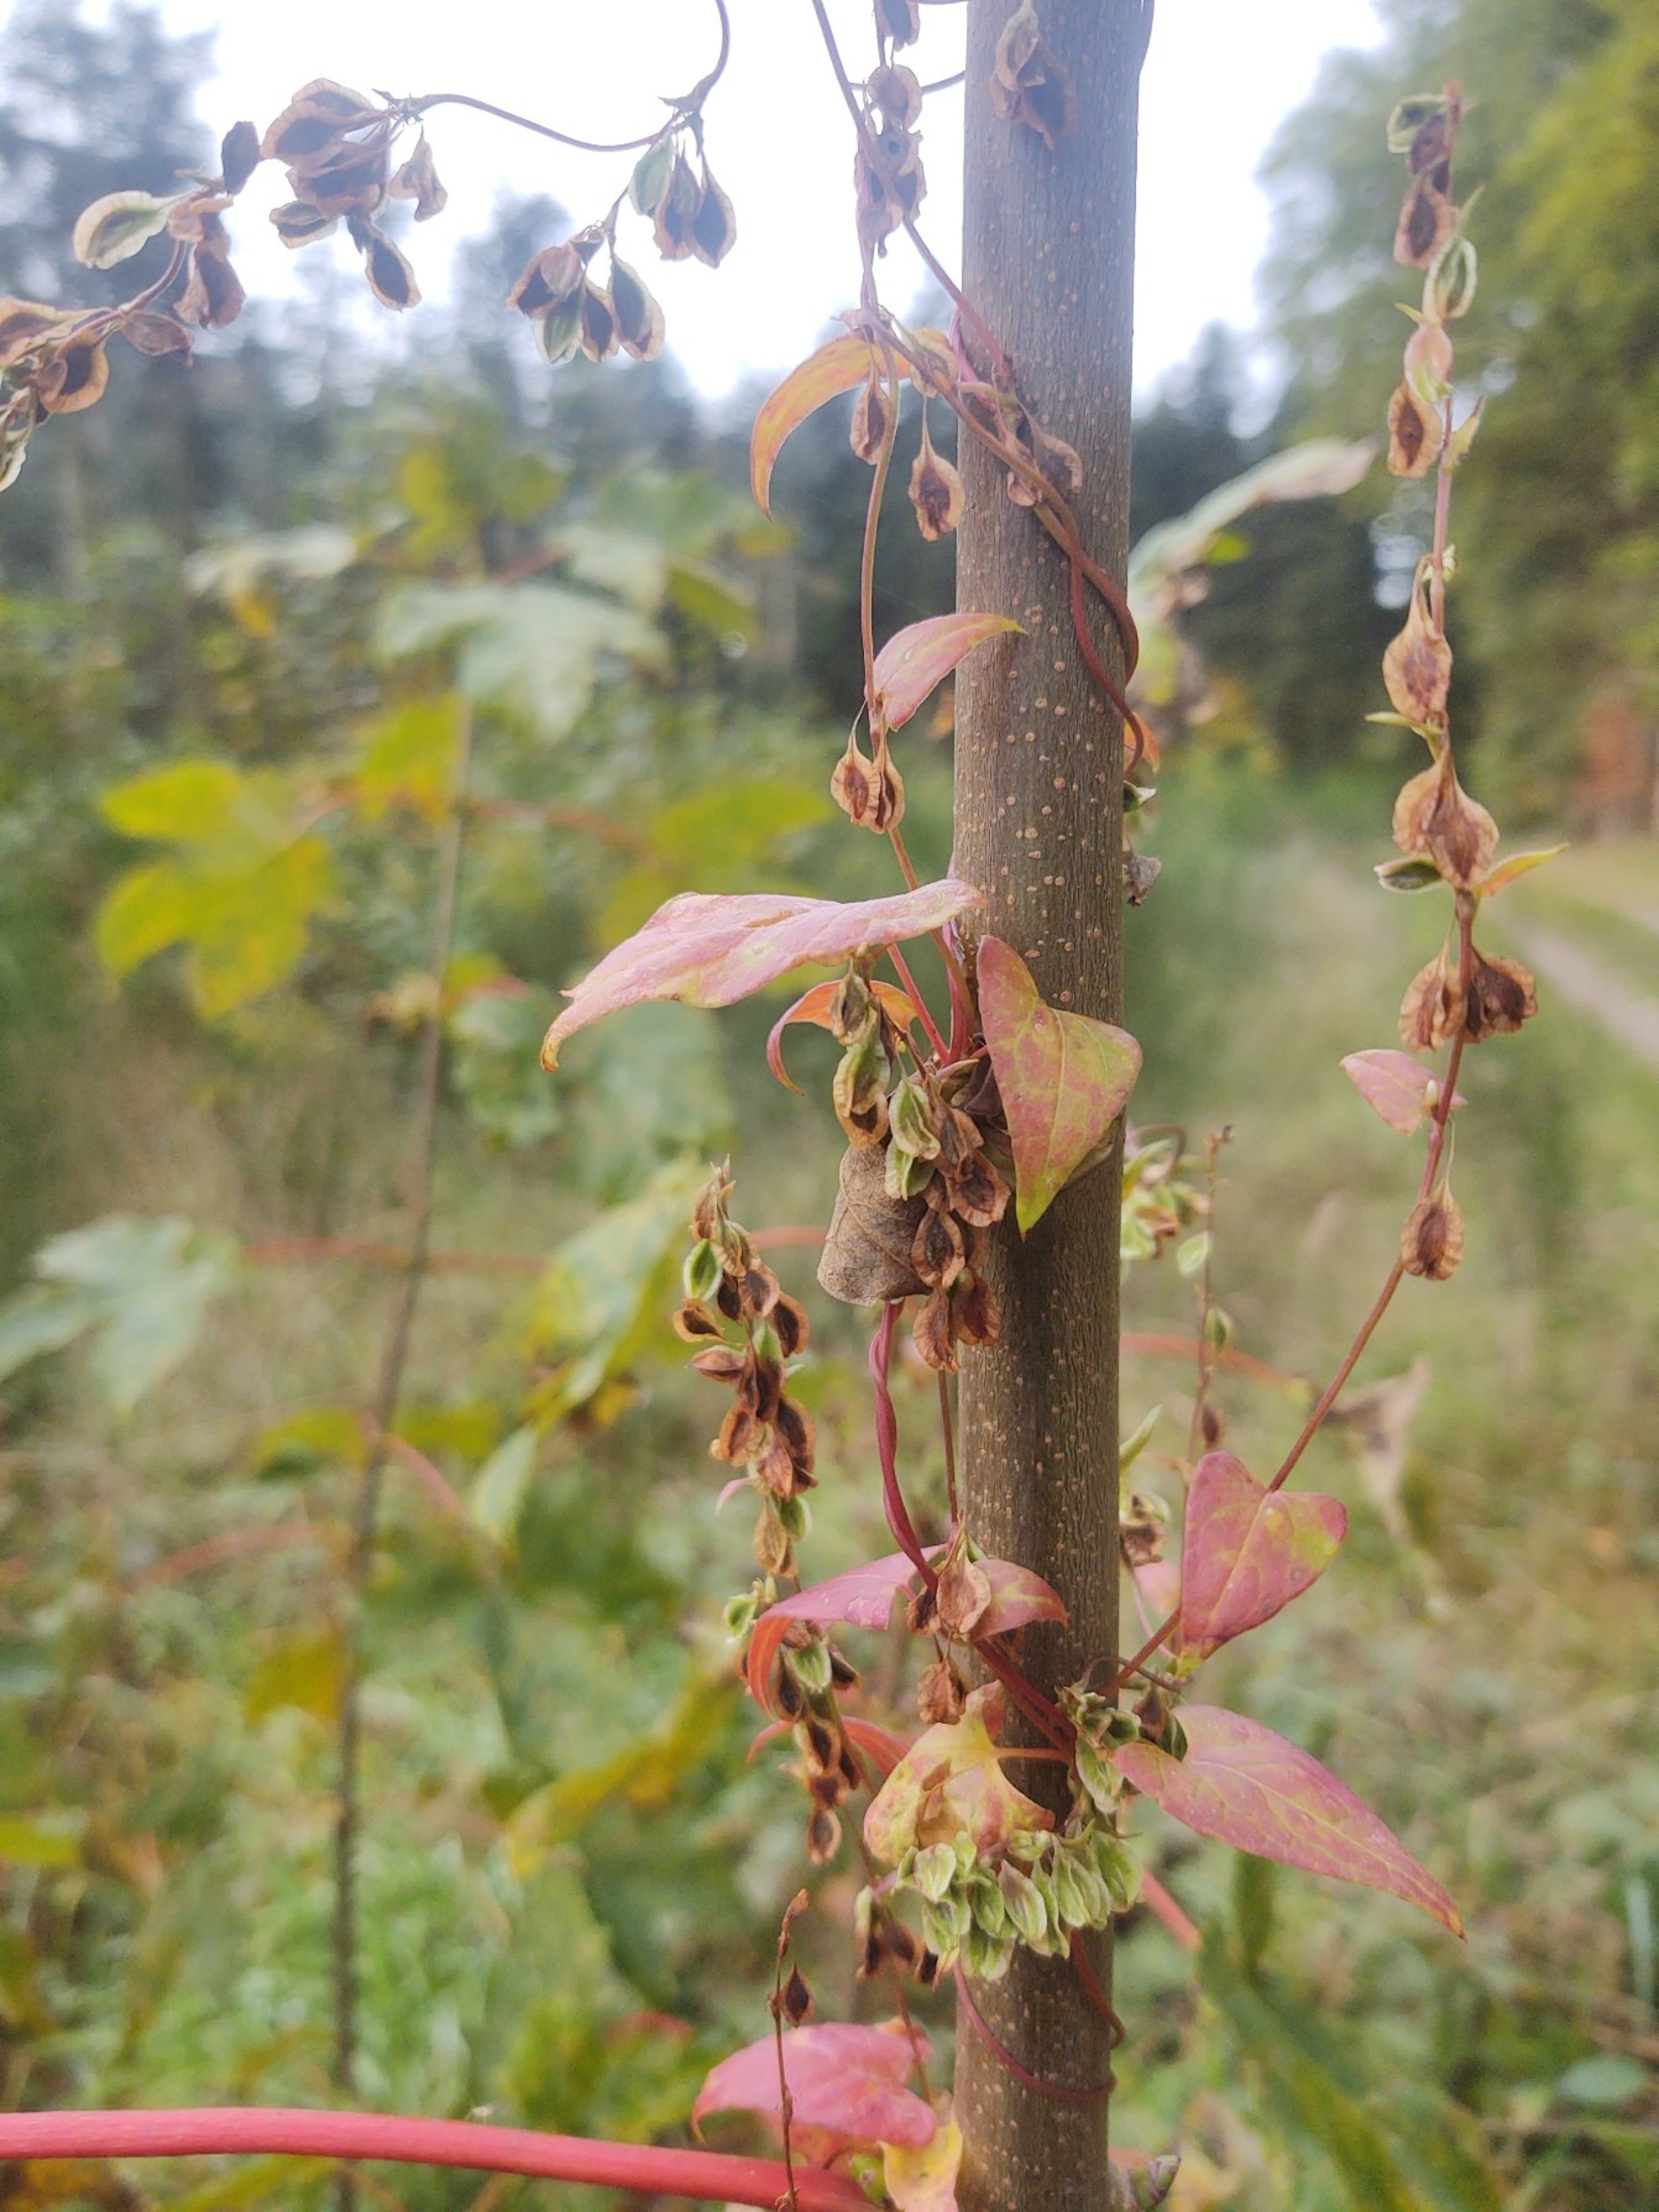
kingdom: Plantae
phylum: Tracheophyta
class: Magnoliopsida
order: Caryophyllales
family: Polygonaceae
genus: Fallopia
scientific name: Fallopia dumetorum
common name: Vinge-pileurt
